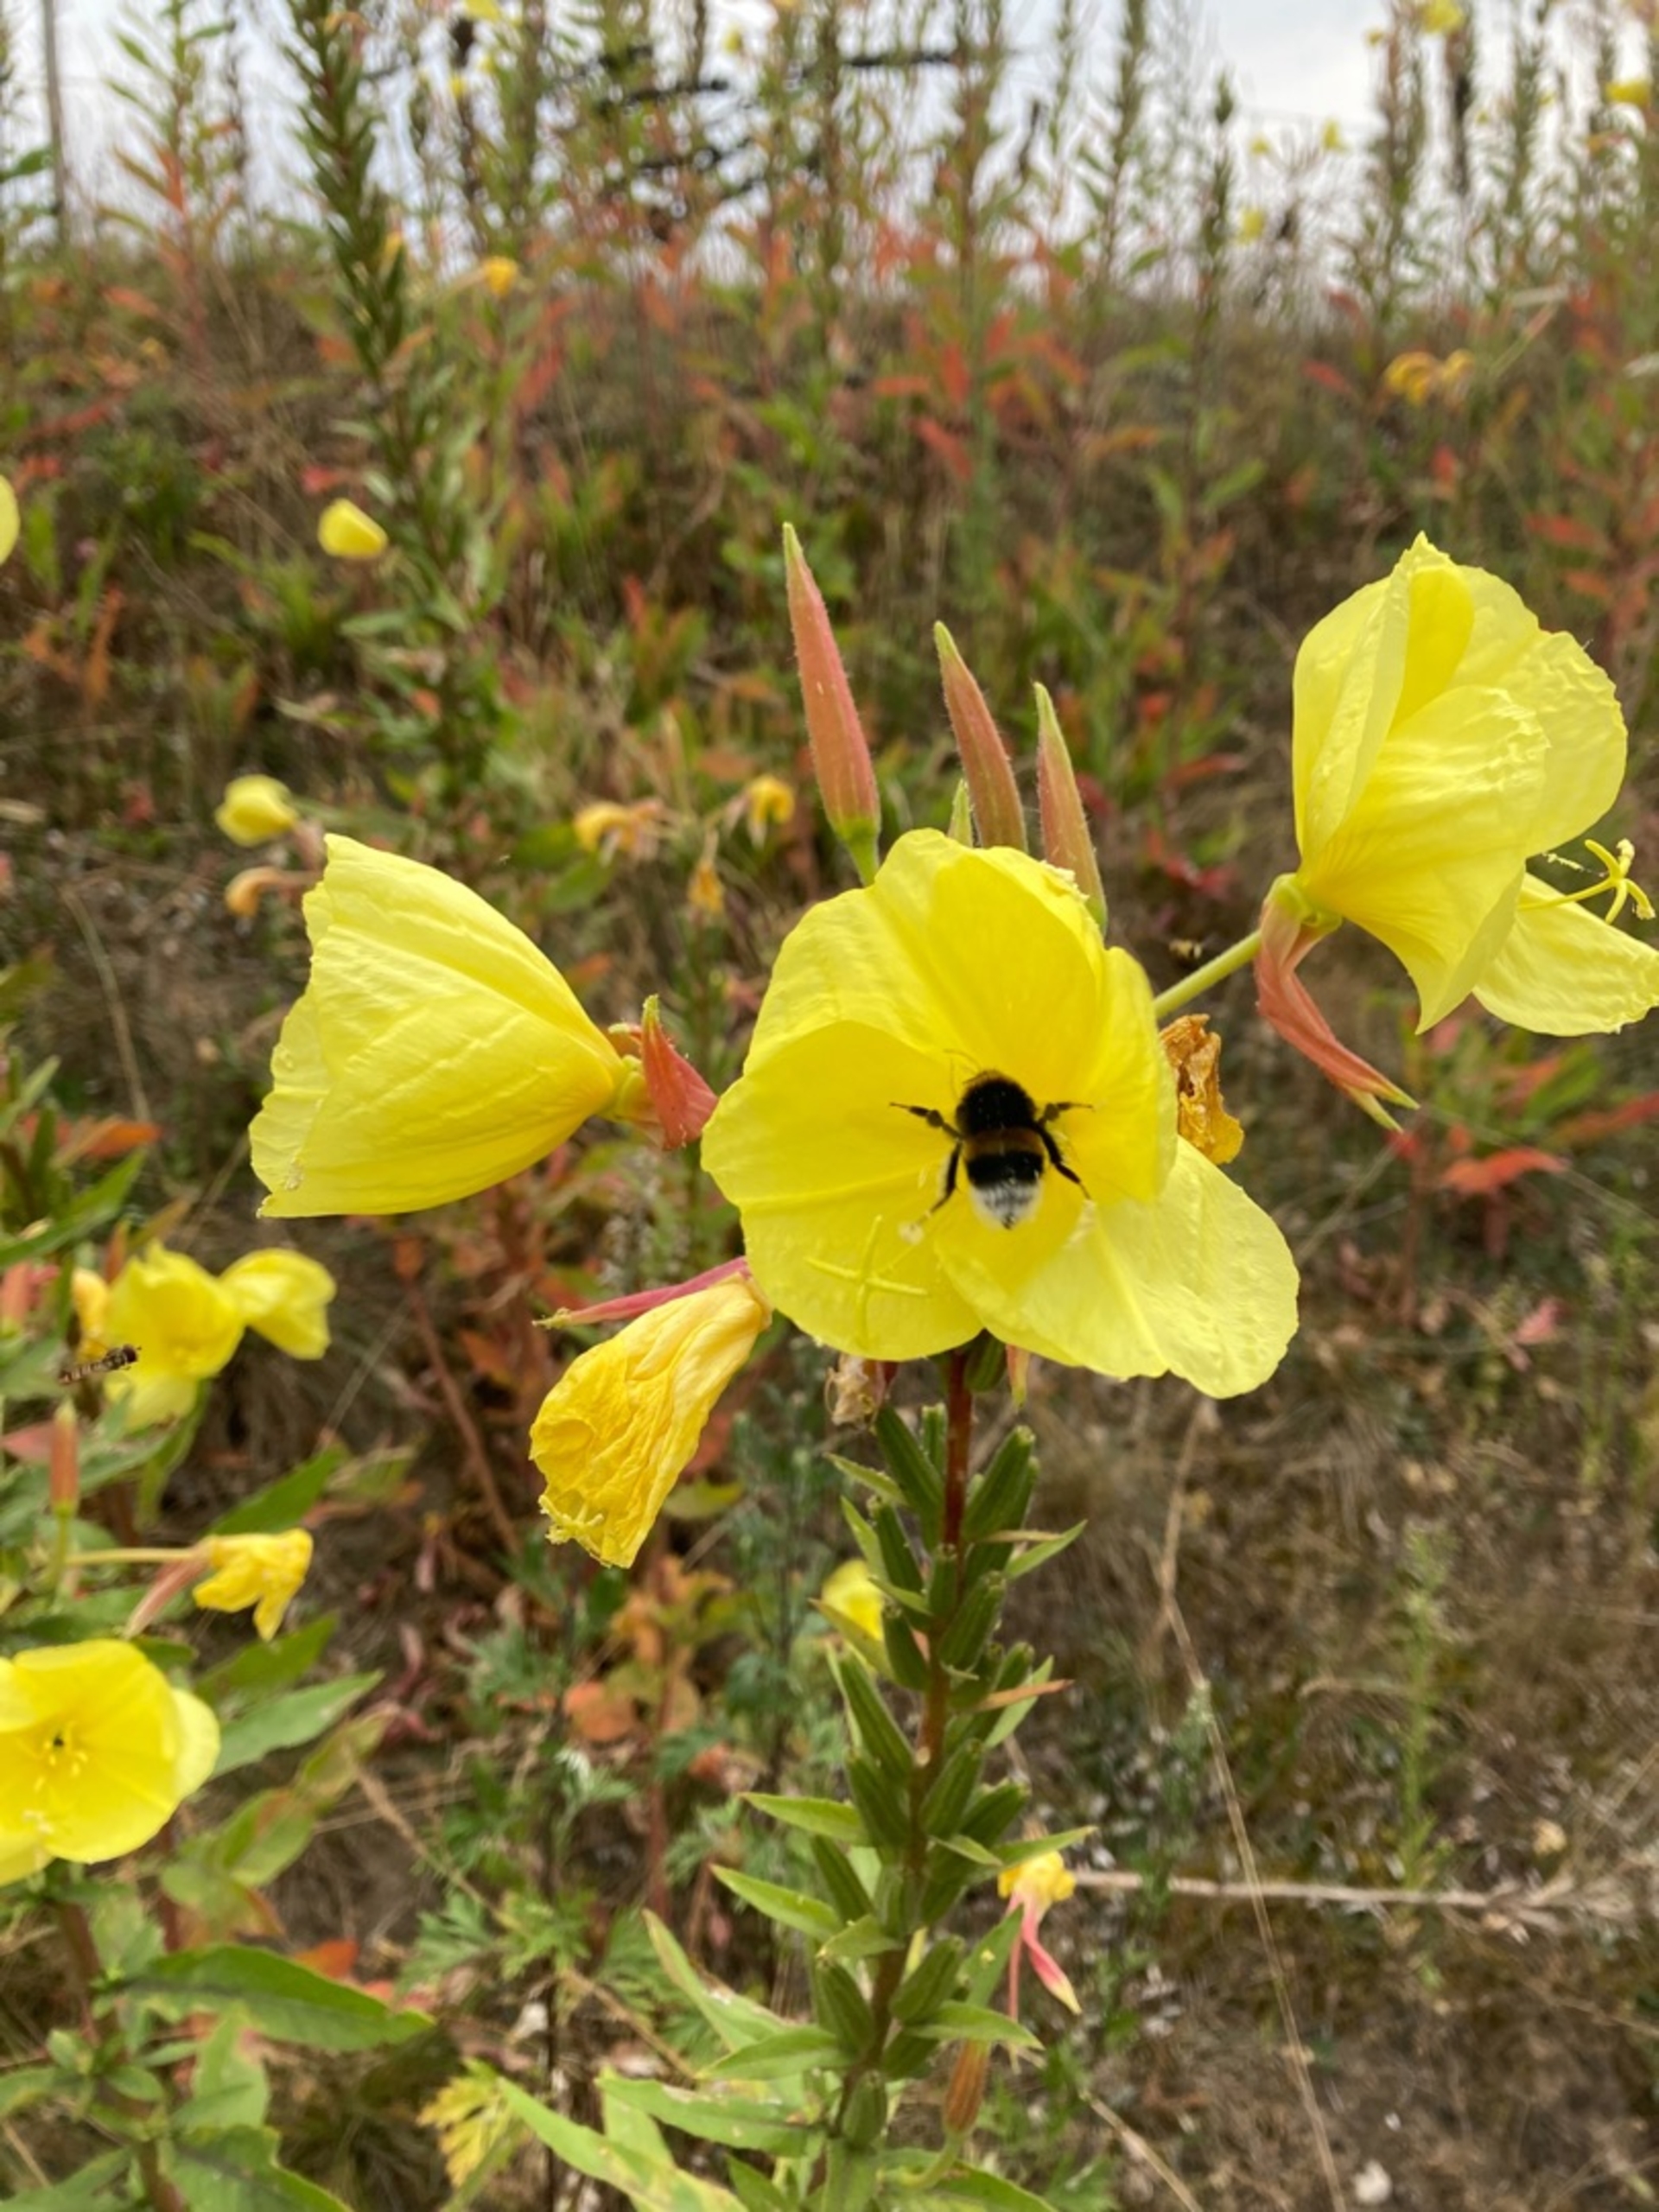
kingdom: Plantae
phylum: Tracheophyta
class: Magnoliopsida
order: Myrtales
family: Onagraceae
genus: Oenothera
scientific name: Oenothera glazioviana
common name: Kæmpe-natlys
